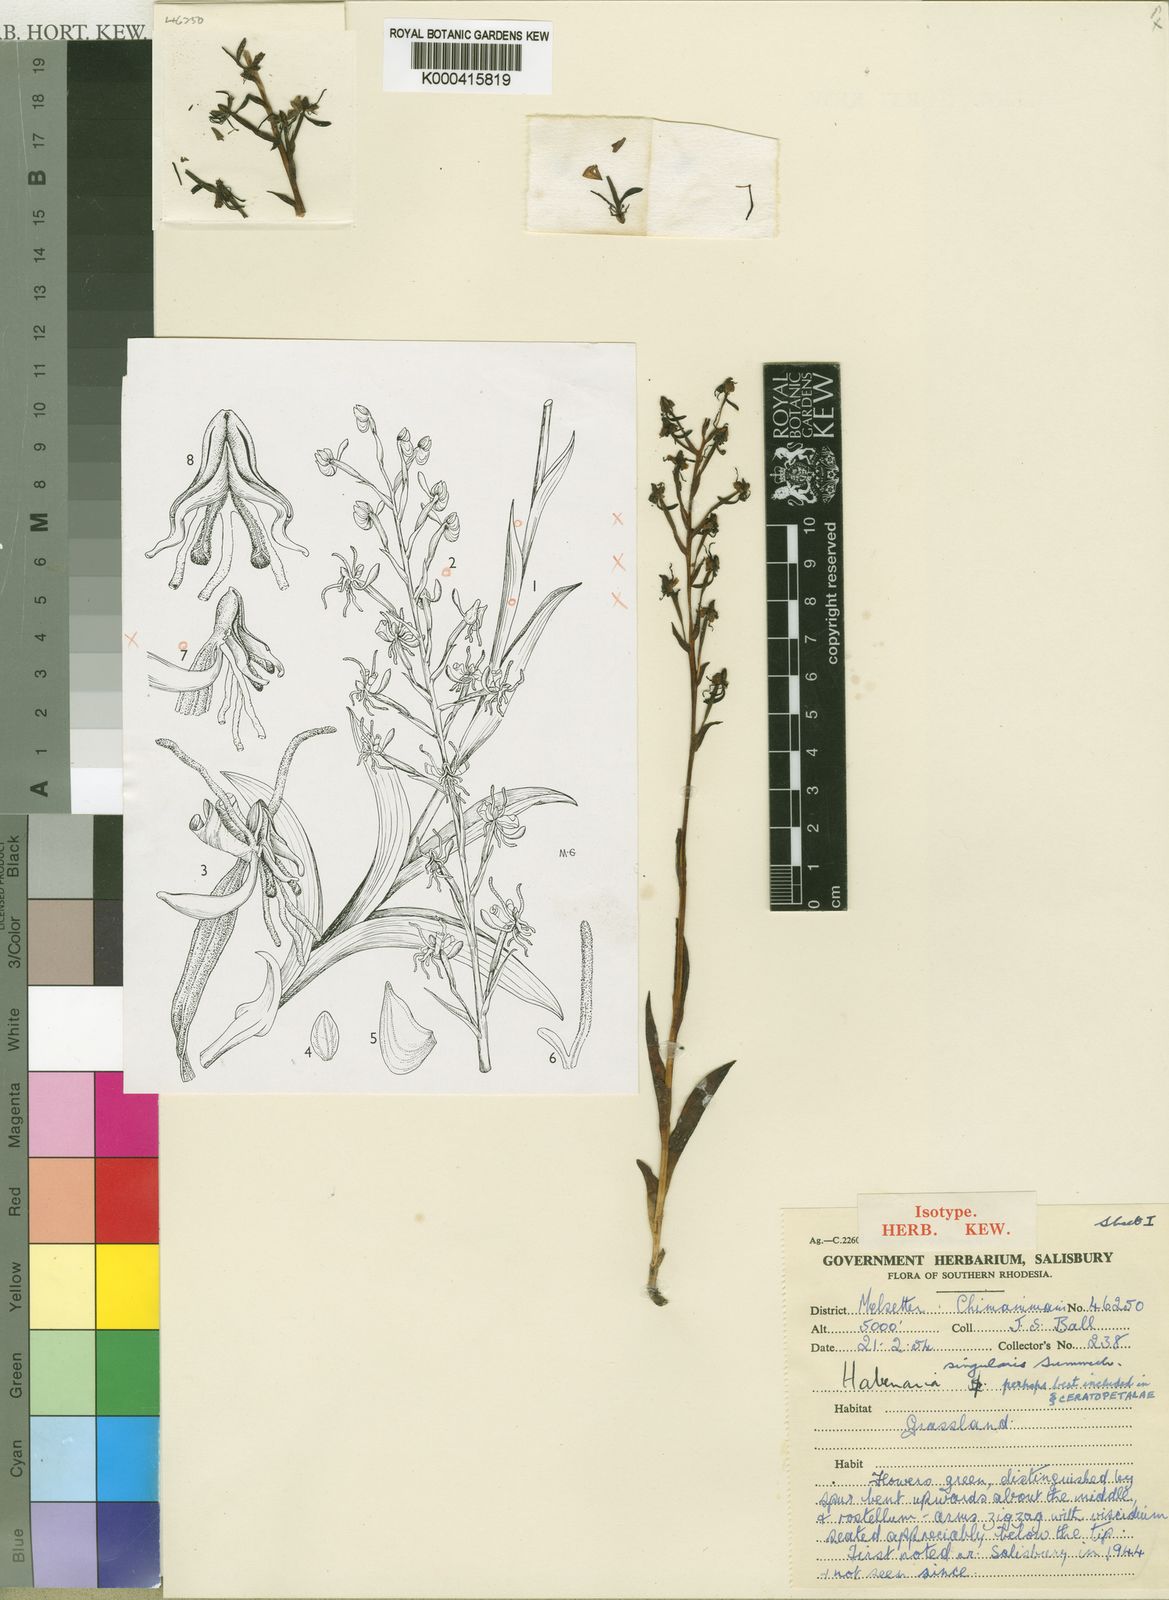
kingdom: Plantae
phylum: Tracheophyta
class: Liliopsida
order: Asparagales
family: Orchidaceae
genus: Habenaria
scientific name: Habenaria singularis
